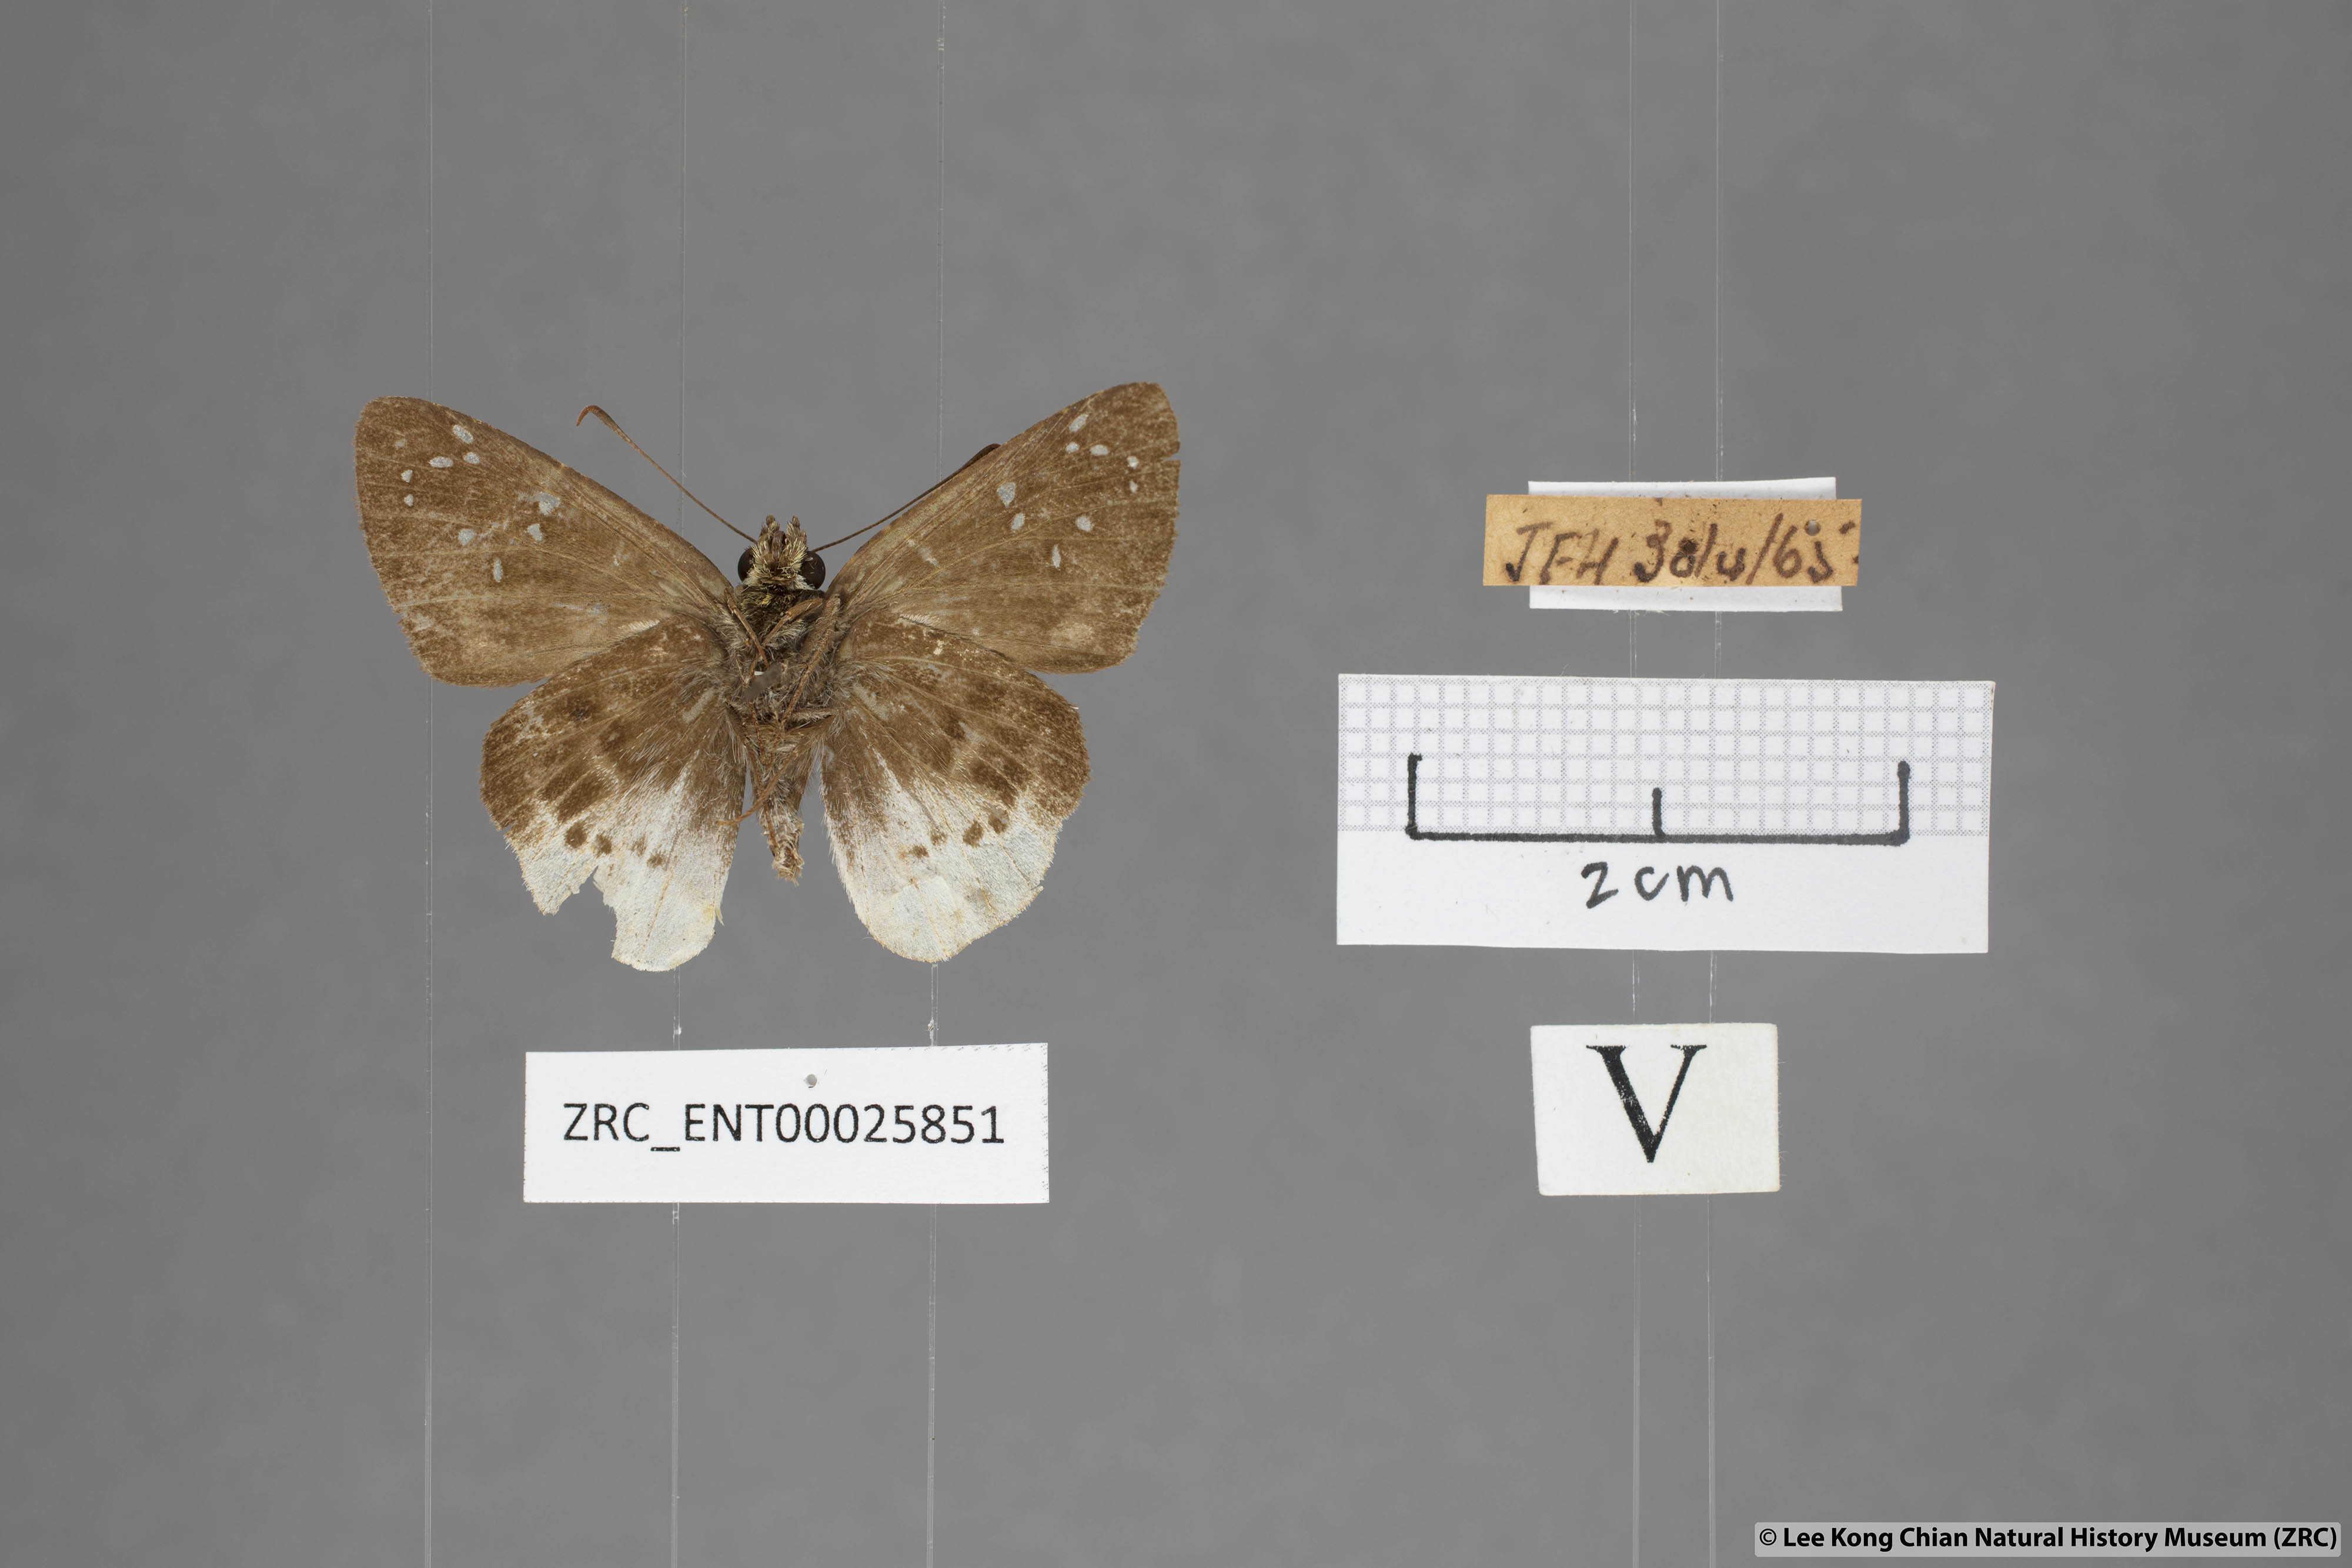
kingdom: Animalia
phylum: Arthropoda
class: Insecta
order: Lepidoptera
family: Hesperiidae
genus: Darpa
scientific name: Darpa pterica
